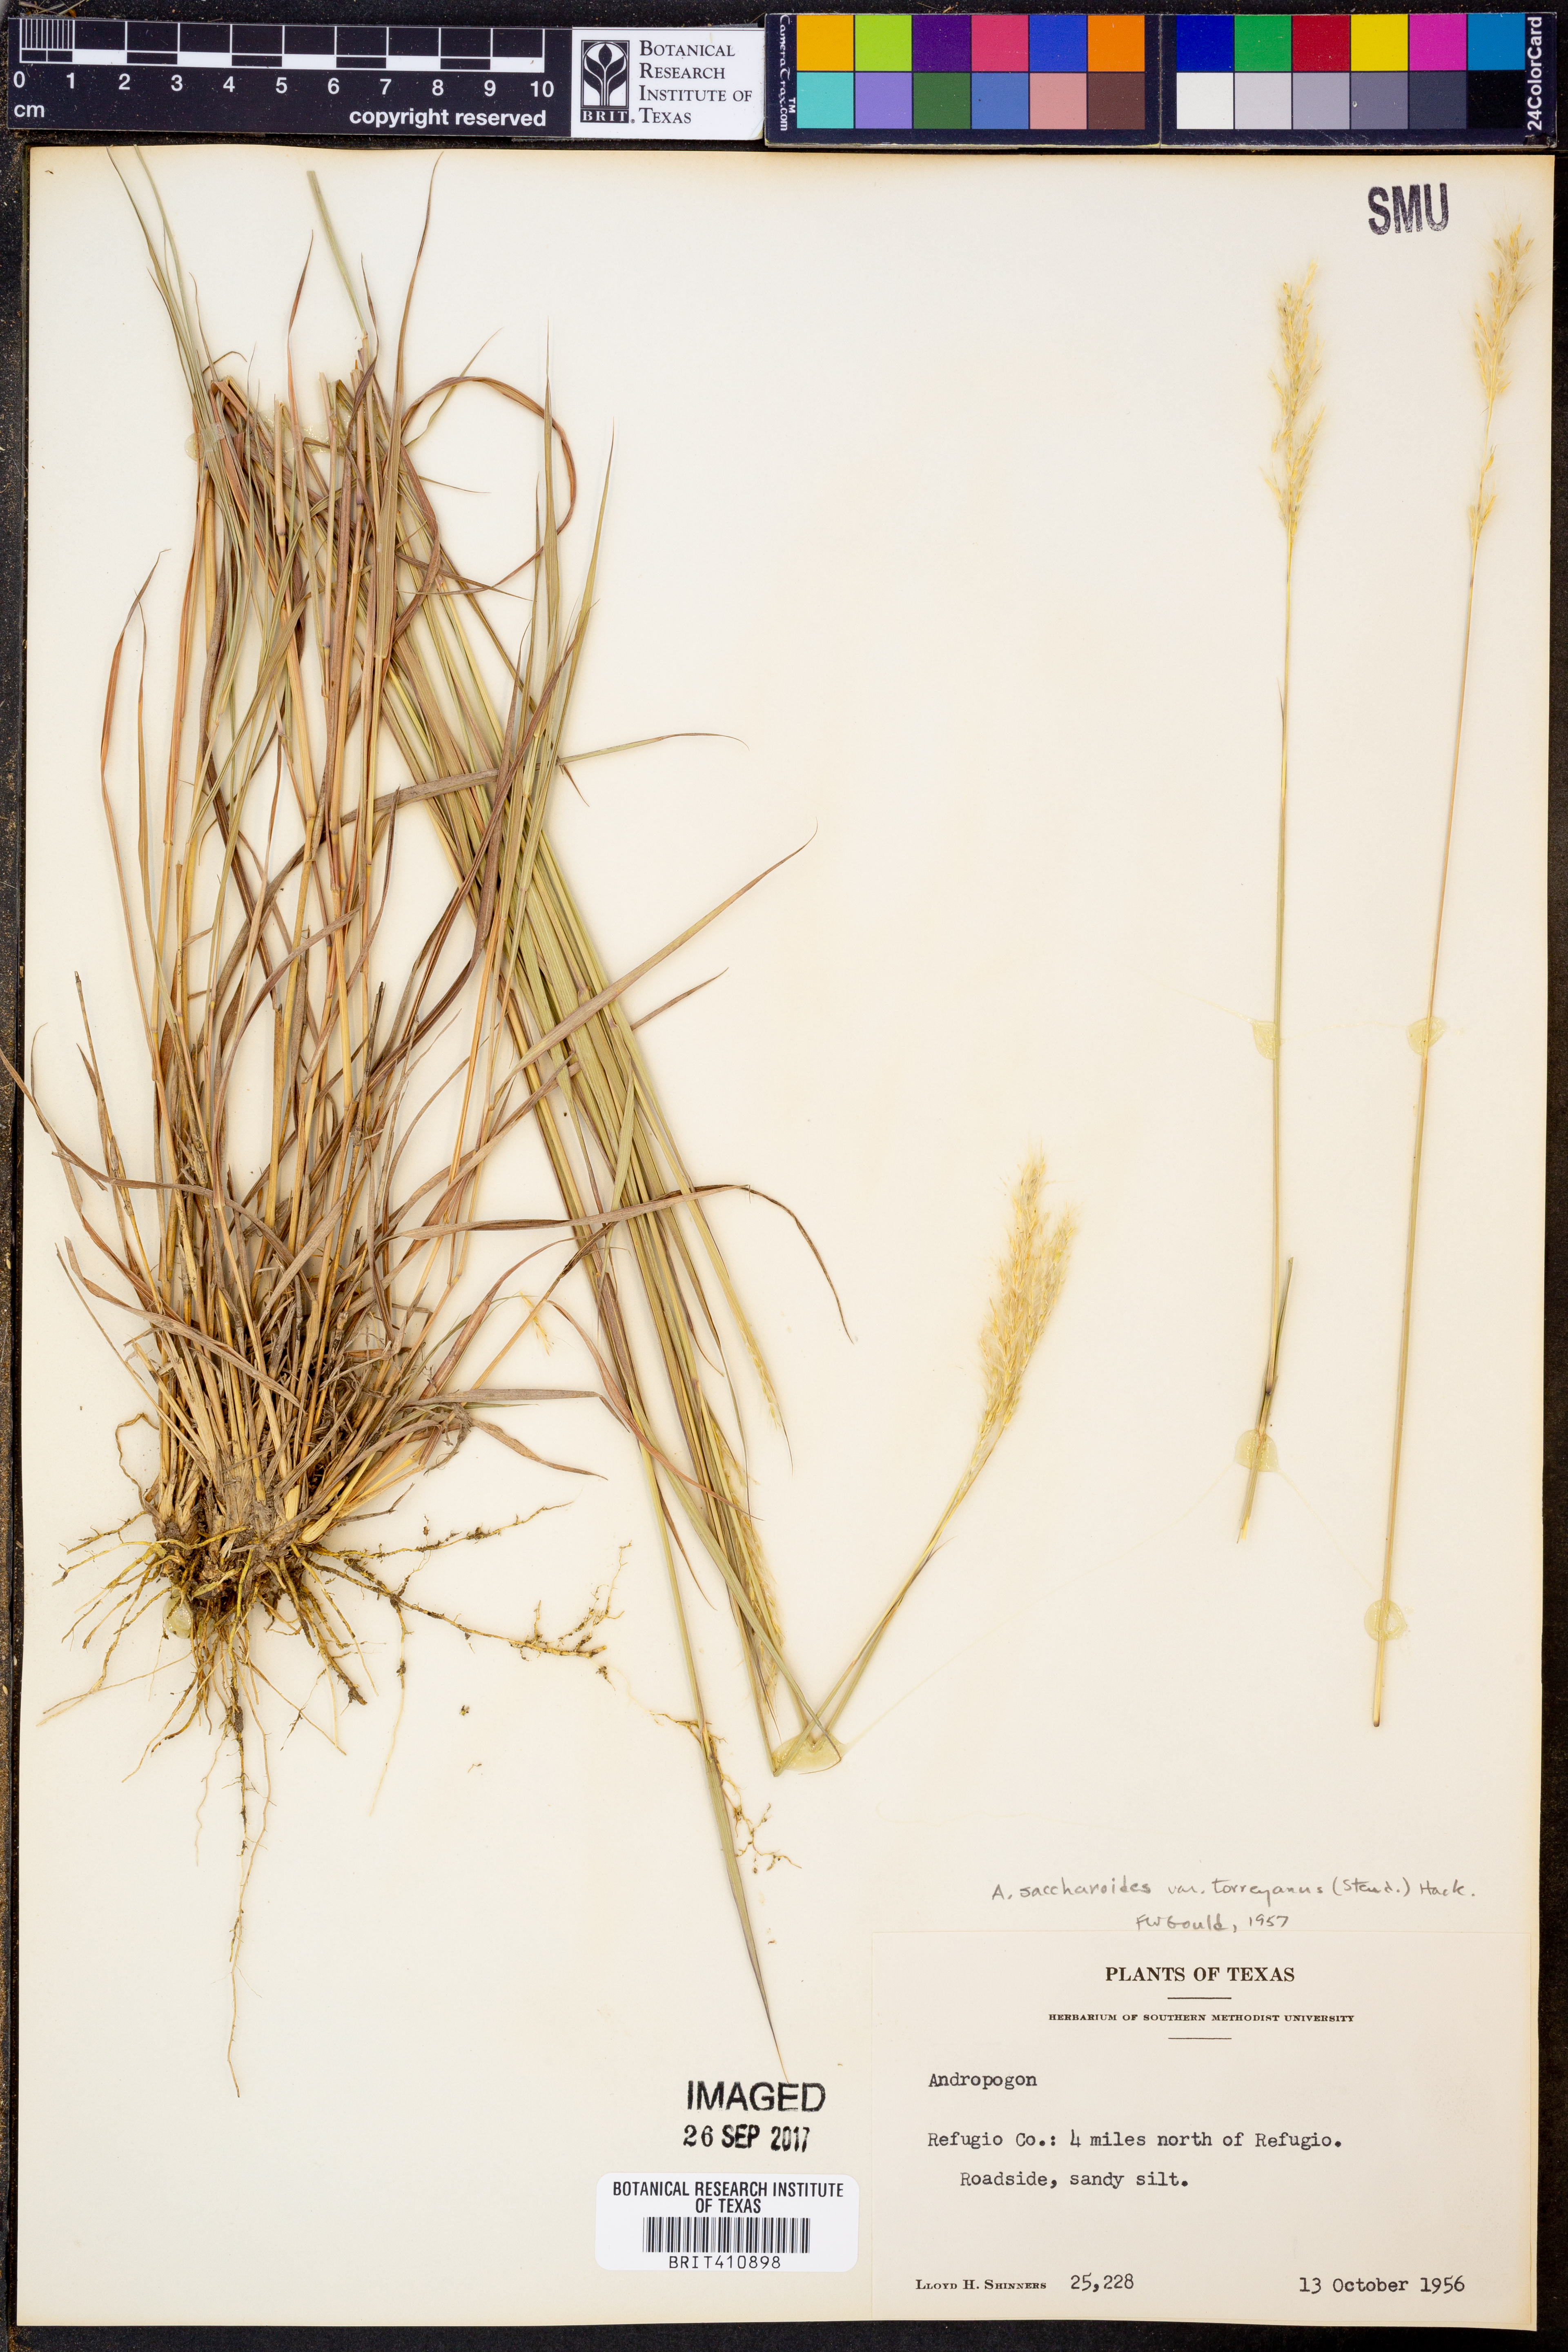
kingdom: Plantae
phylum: Tracheophyta
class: Liliopsida
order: Poales
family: Poaceae
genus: Bothriochloa
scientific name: Bothriochloa torreyana
